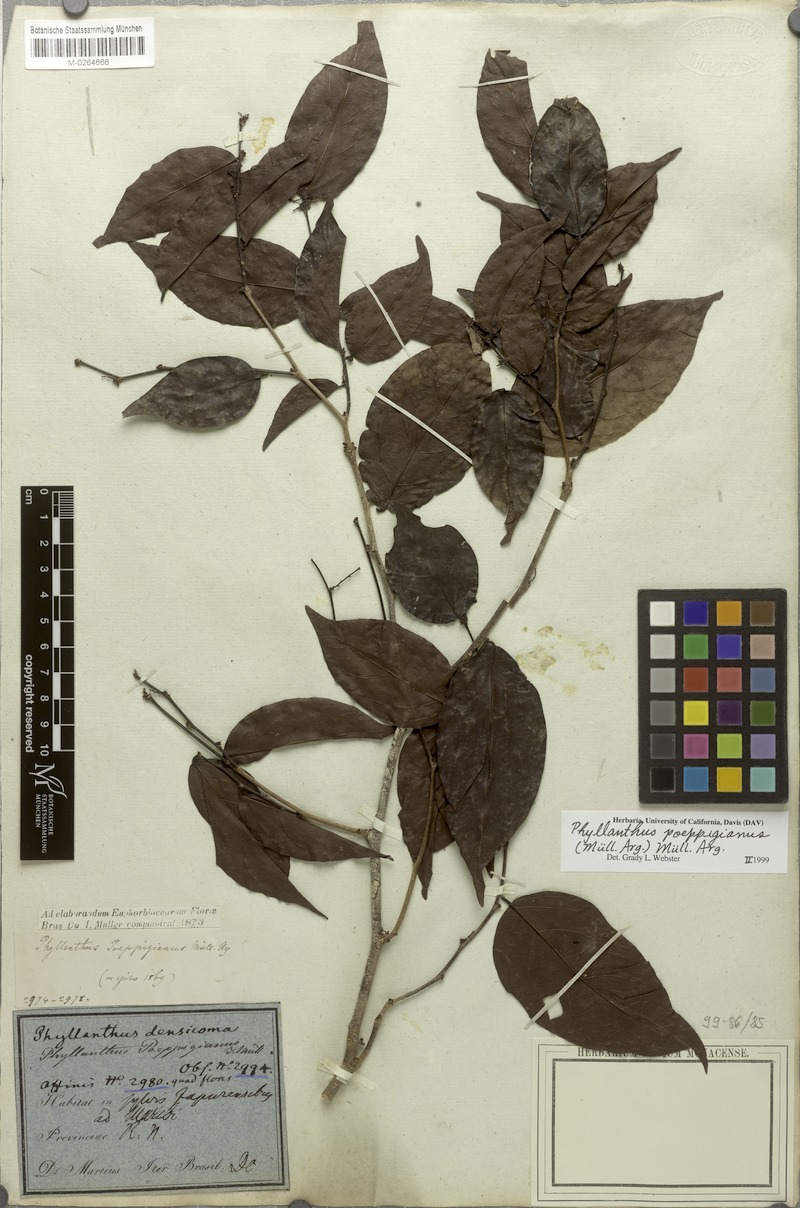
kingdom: Plantae
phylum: Tracheophyta
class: Magnoliopsida
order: Malpighiales
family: Phyllanthaceae
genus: Phyllanthus
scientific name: Phyllanthus poeppigianus
